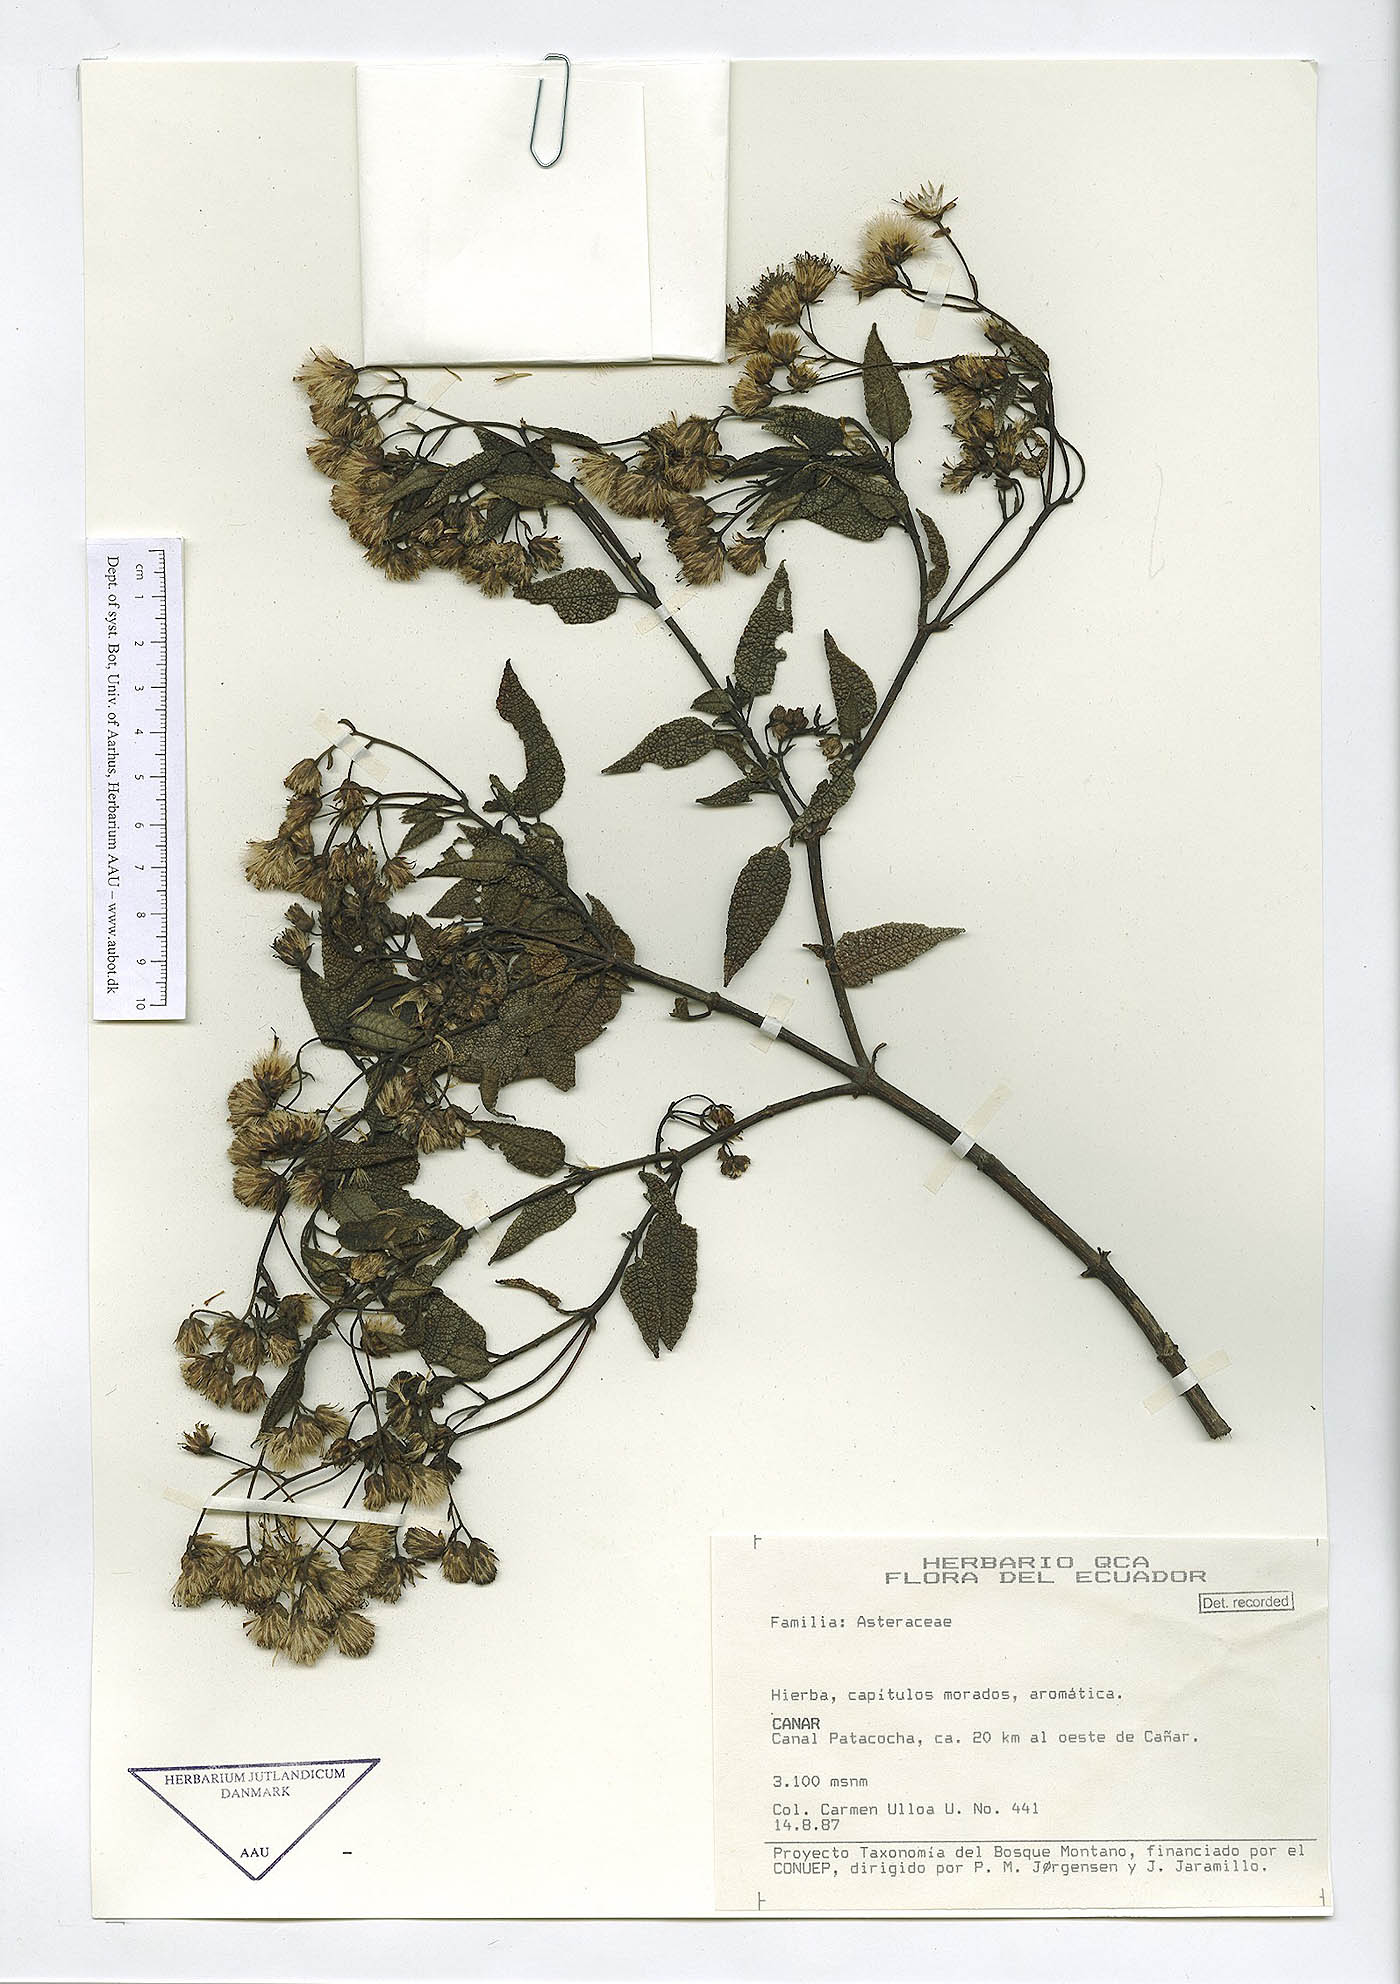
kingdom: Plantae
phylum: Tracheophyta
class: Magnoliopsida
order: Asterales
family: Asteraceae
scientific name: Asteraceae
